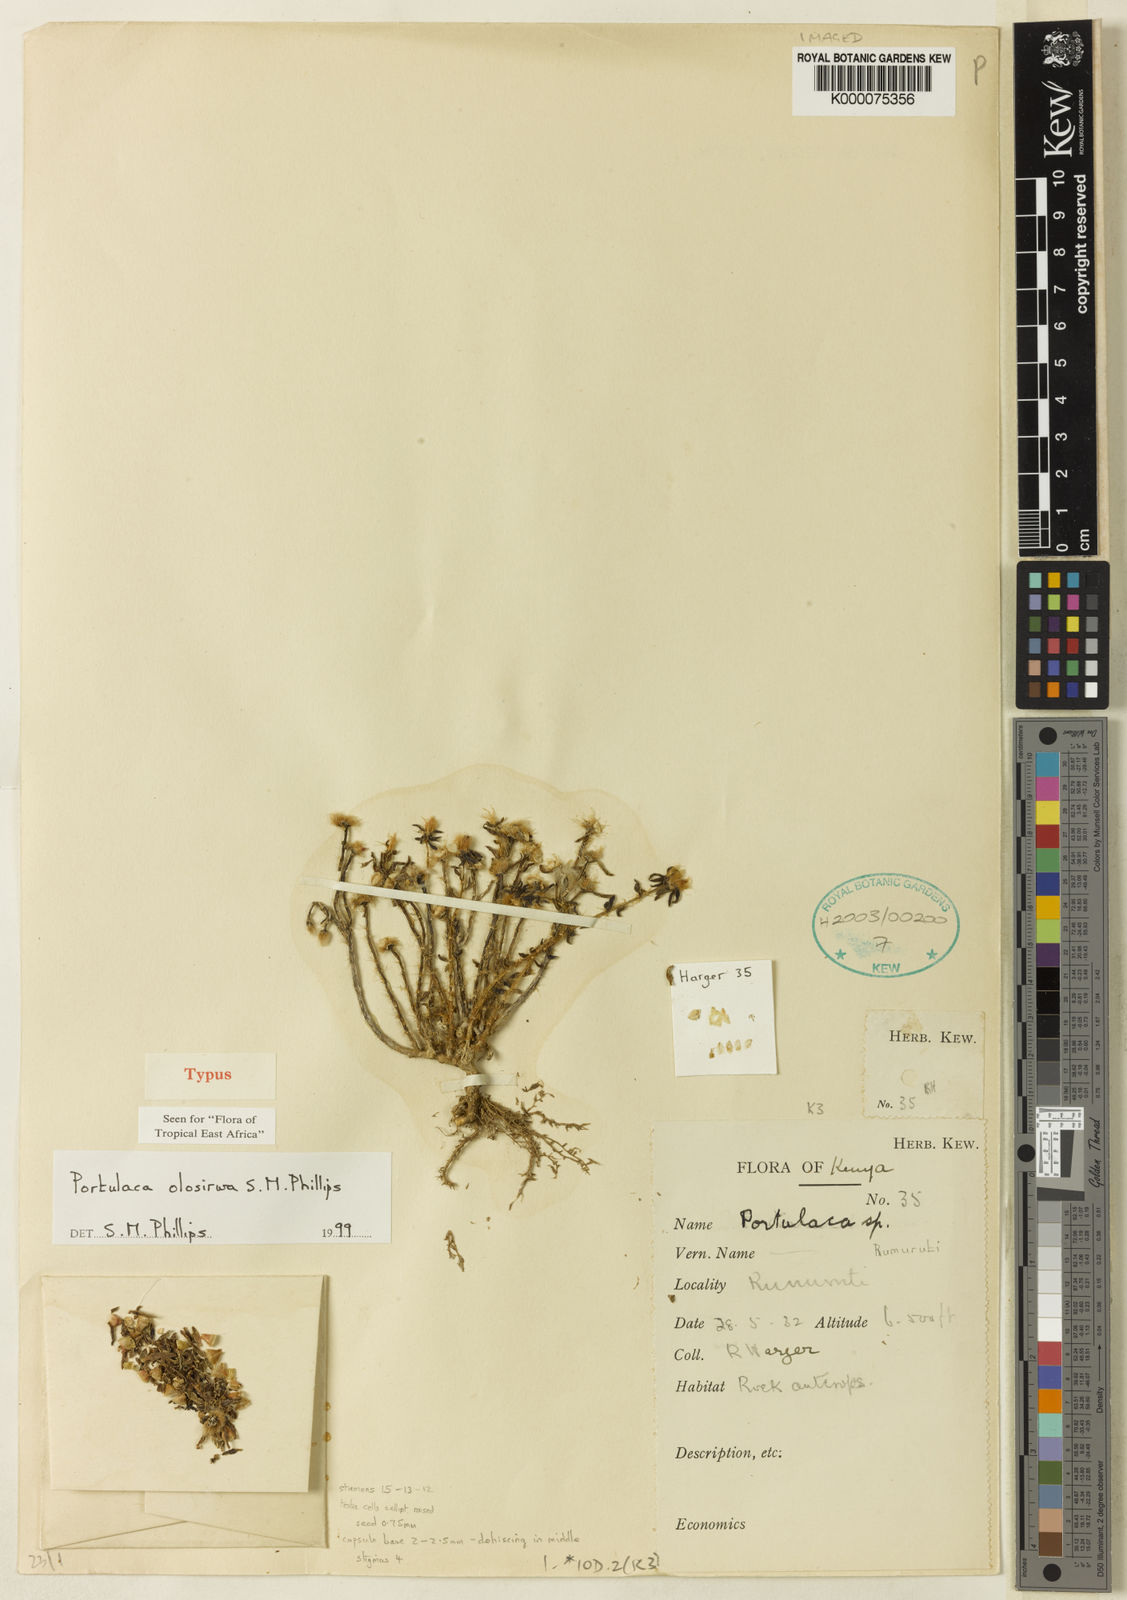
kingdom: Plantae
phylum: Tracheophyta
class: Magnoliopsida
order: Caryophyllales
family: Portulacaceae
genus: Portulaca
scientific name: Portulaca olosirwa
